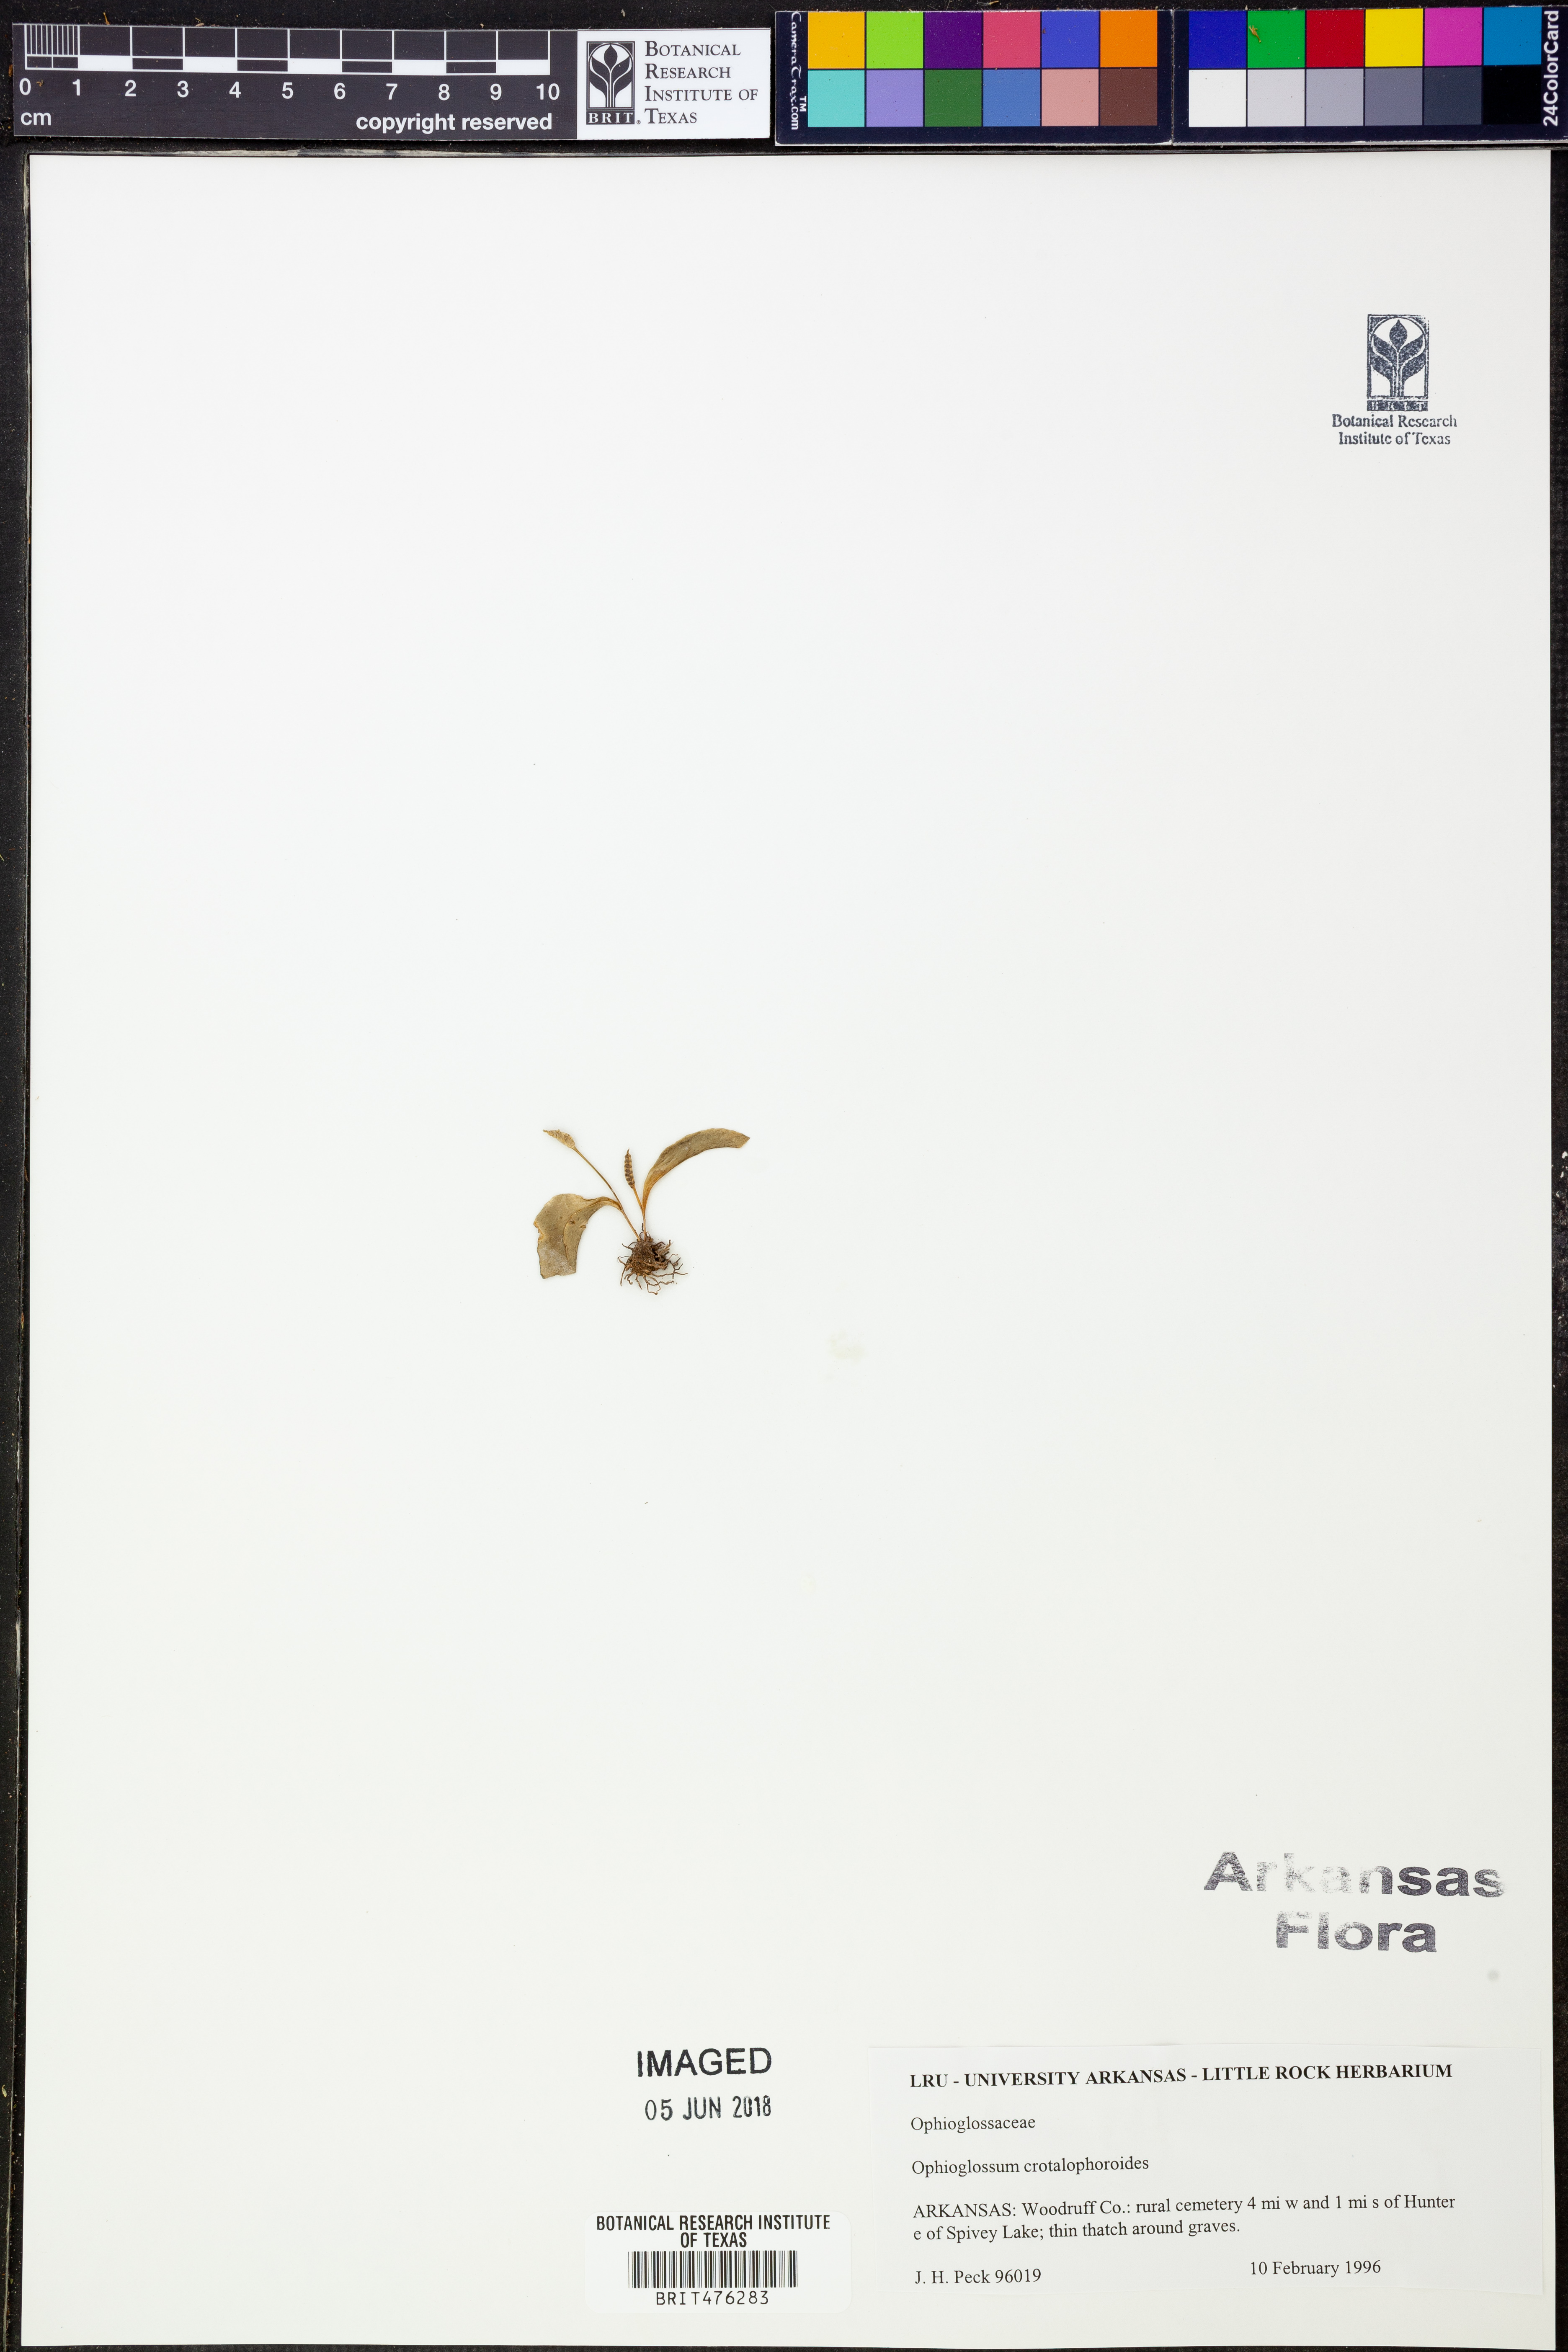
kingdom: Plantae
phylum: Tracheophyta
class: Polypodiopsida
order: Ophioglossales
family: Ophioglossaceae
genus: Ophioglossum
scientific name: Ophioglossum crotalophoroides
